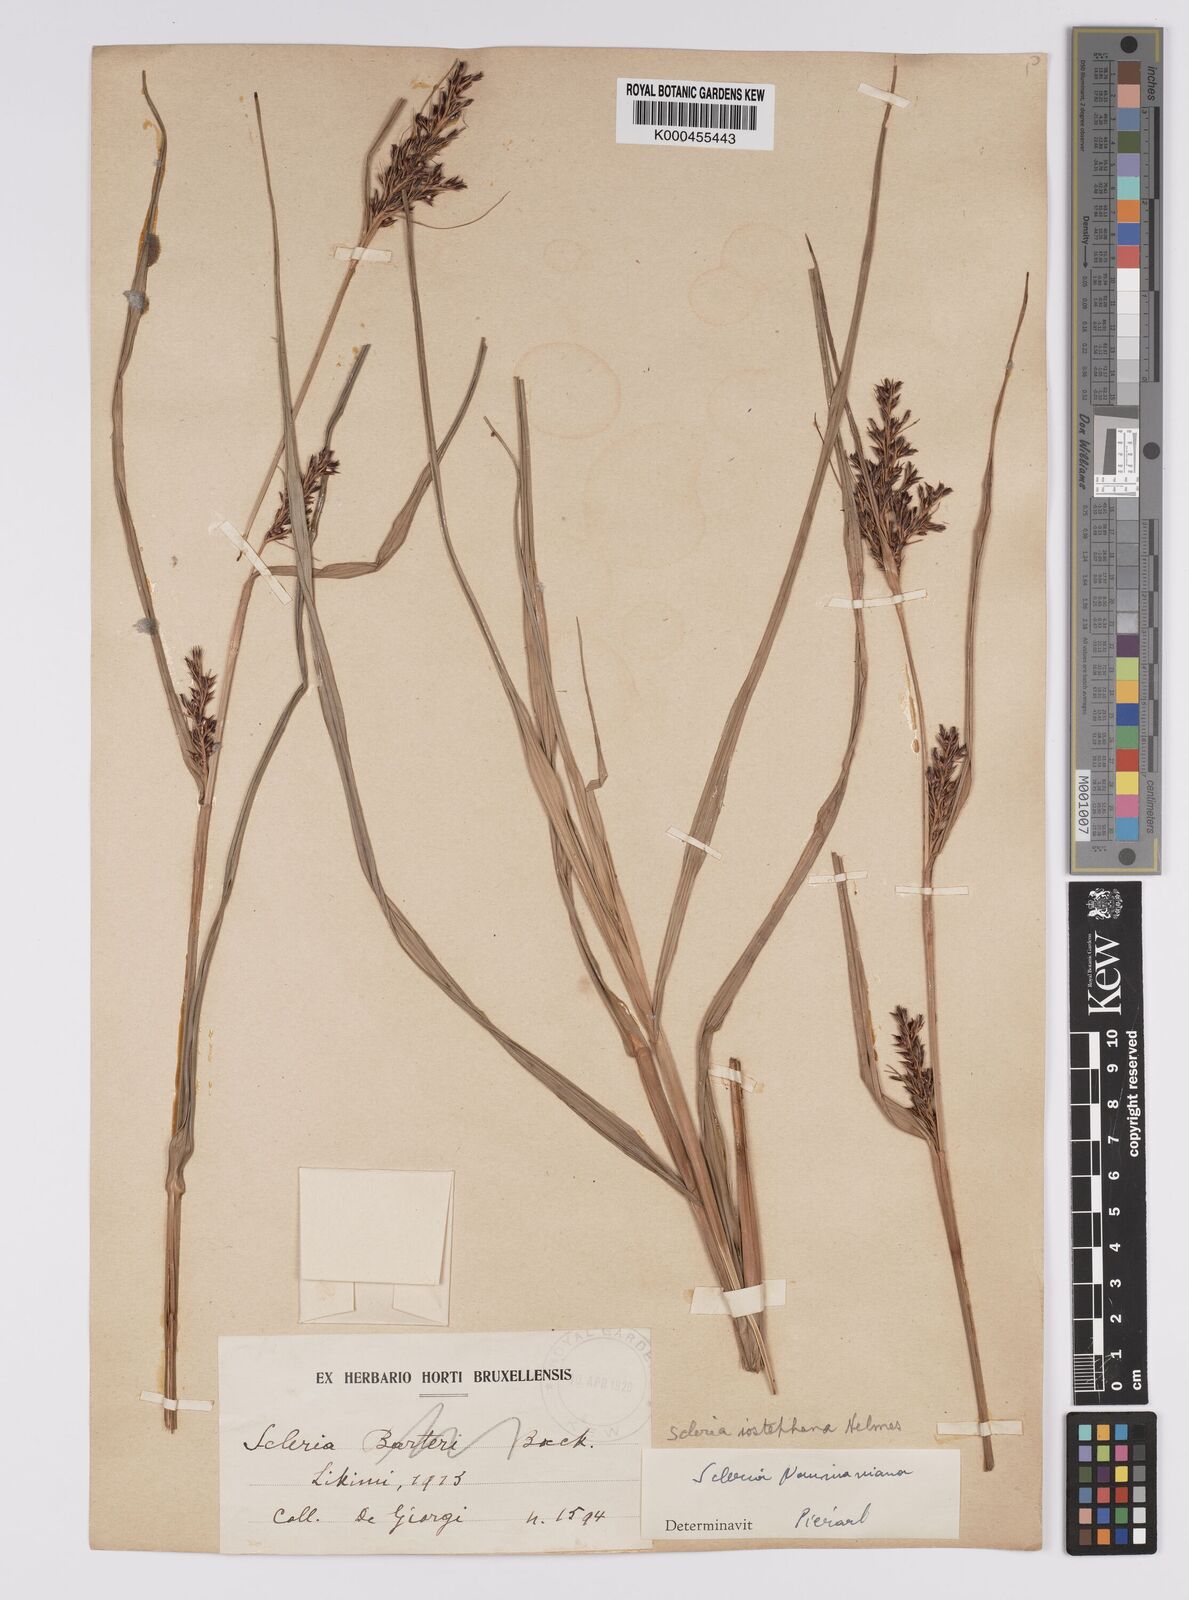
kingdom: Plantae
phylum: Tracheophyta
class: Liliopsida
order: Poales
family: Cyperaceae
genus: Scleria
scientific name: Scleria iostephana
